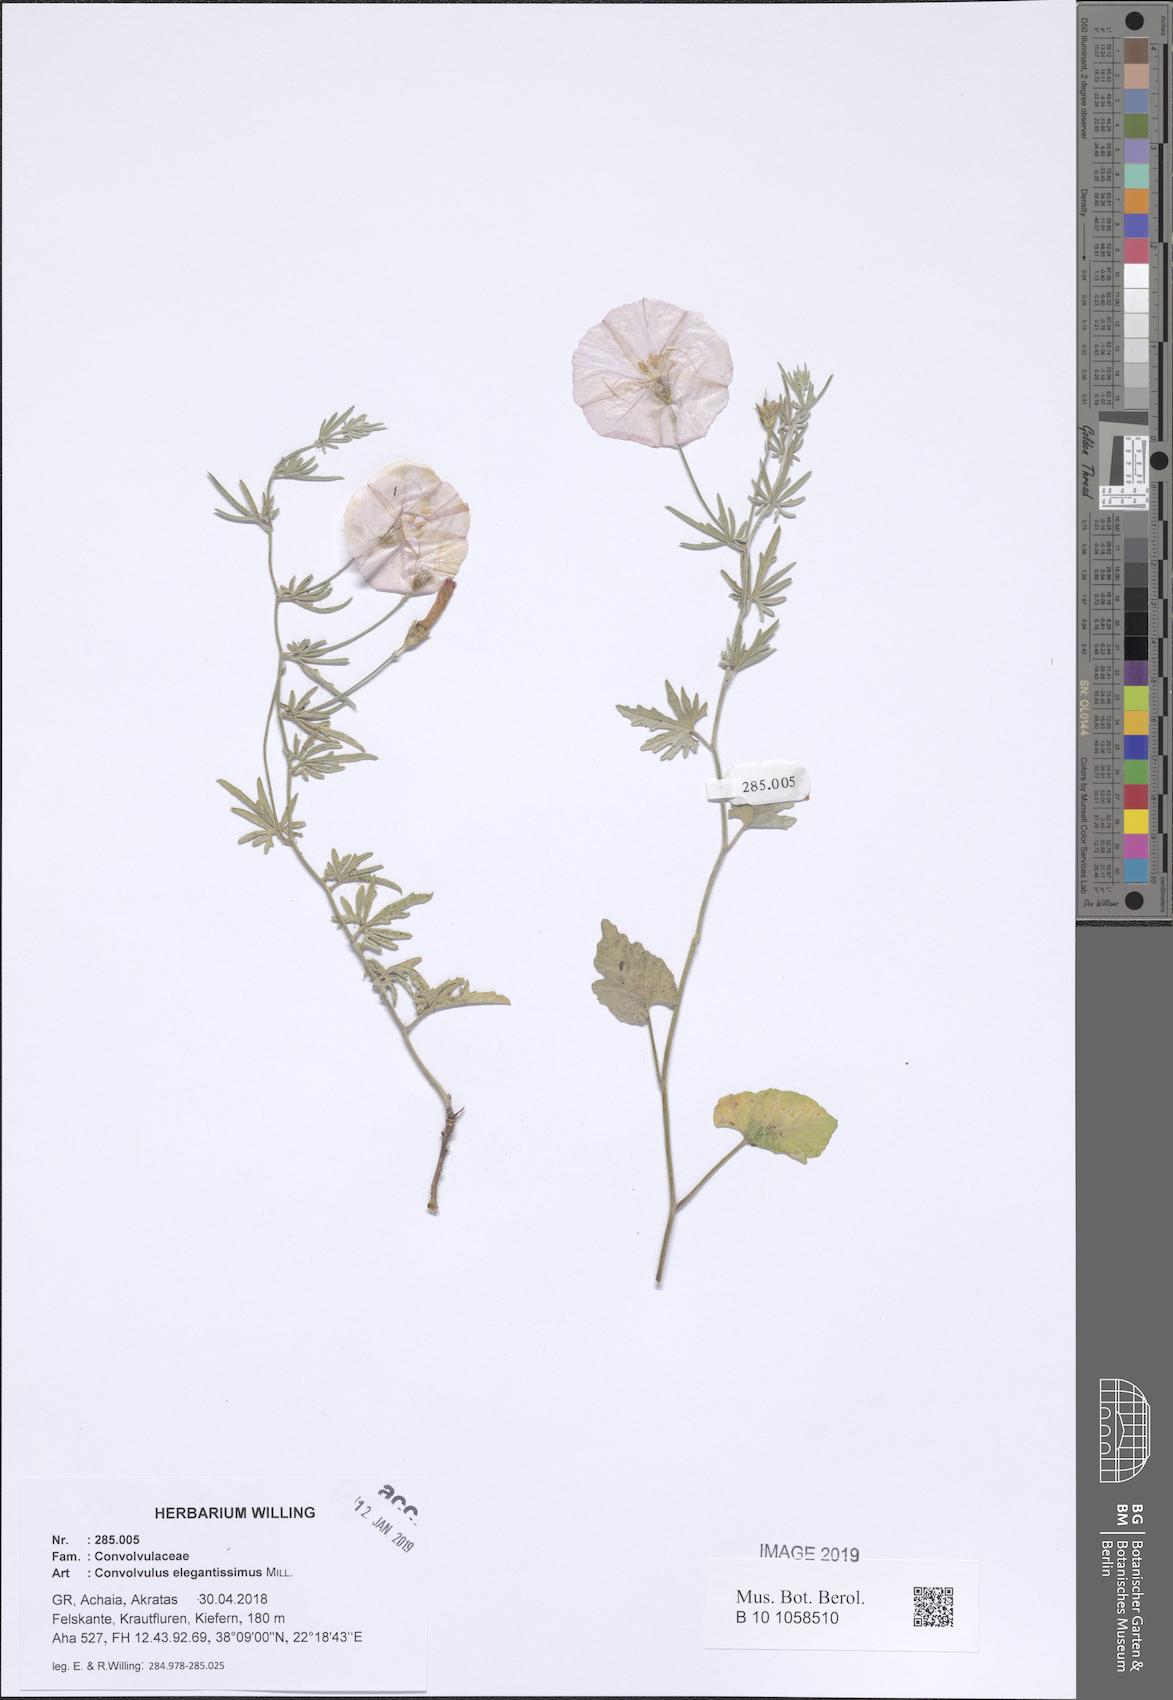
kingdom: Plantae
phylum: Tracheophyta
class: Magnoliopsida
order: Solanales
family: Convolvulaceae
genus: Convolvulus
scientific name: Convolvulus elegantissimus
